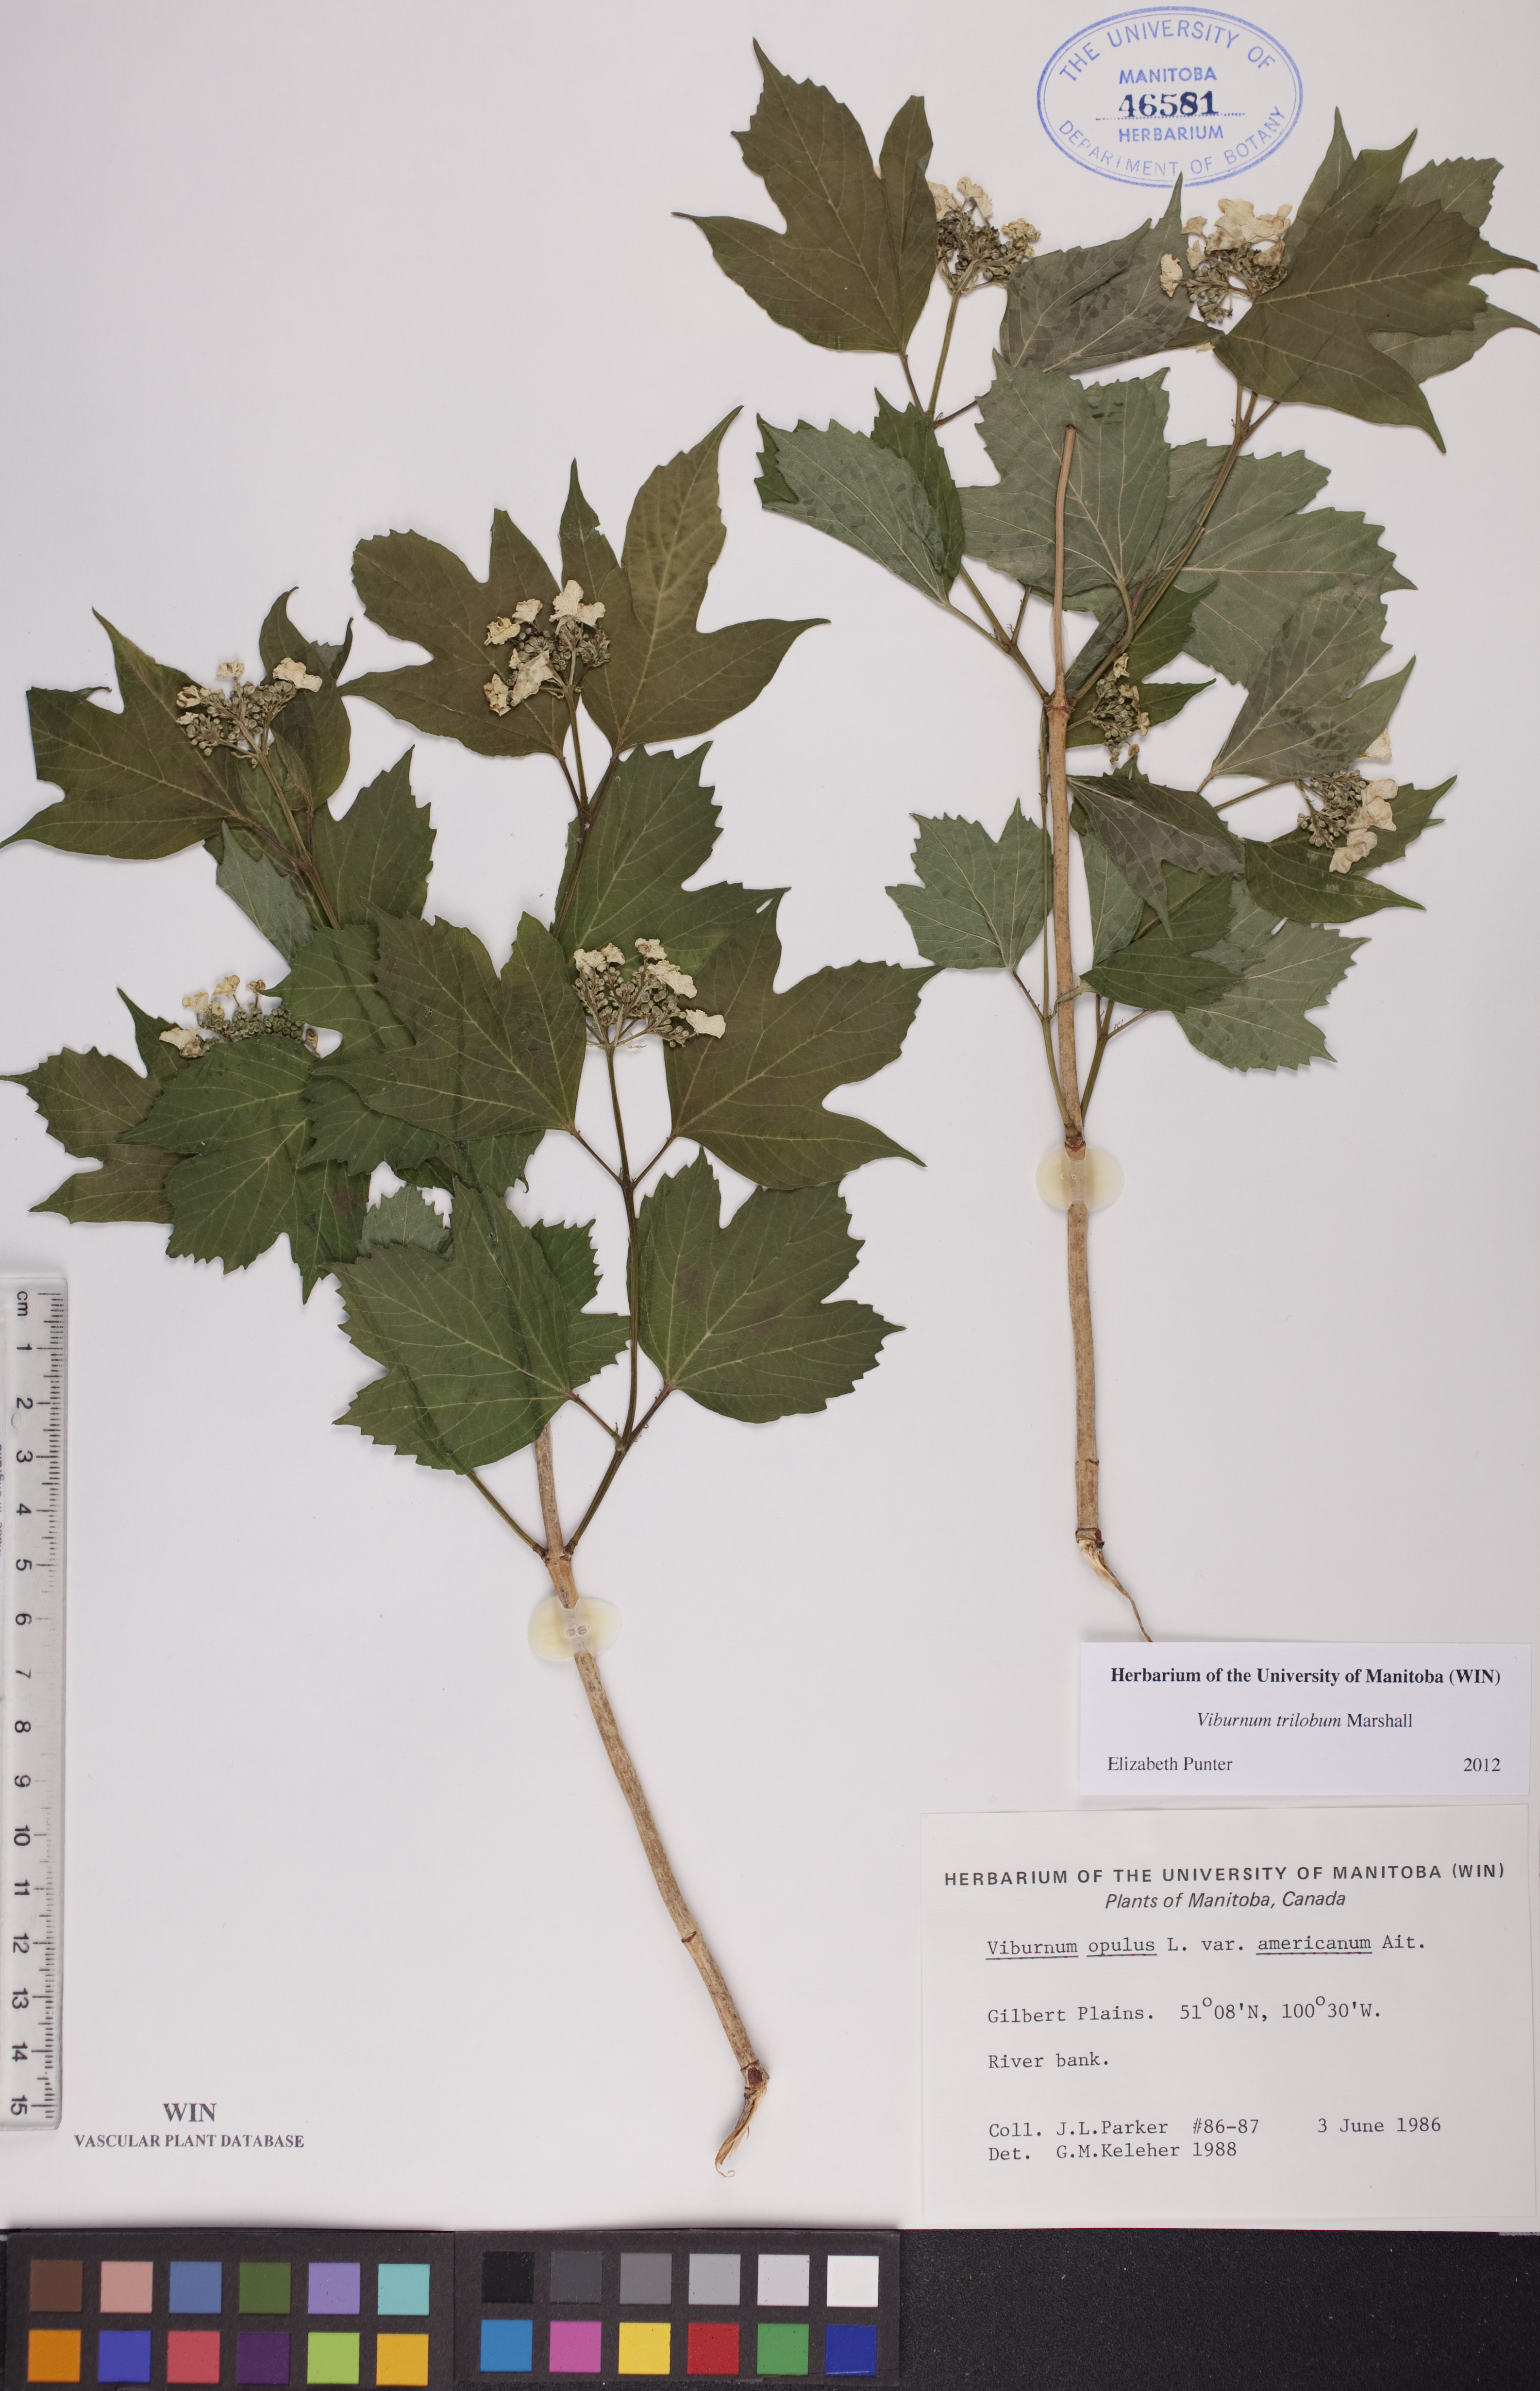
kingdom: Plantae
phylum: Tracheophyta
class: Magnoliopsida
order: Dipsacales
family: Viburnaceae
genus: Viburnum
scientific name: Viburnum trilobum
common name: American cranberrybush
